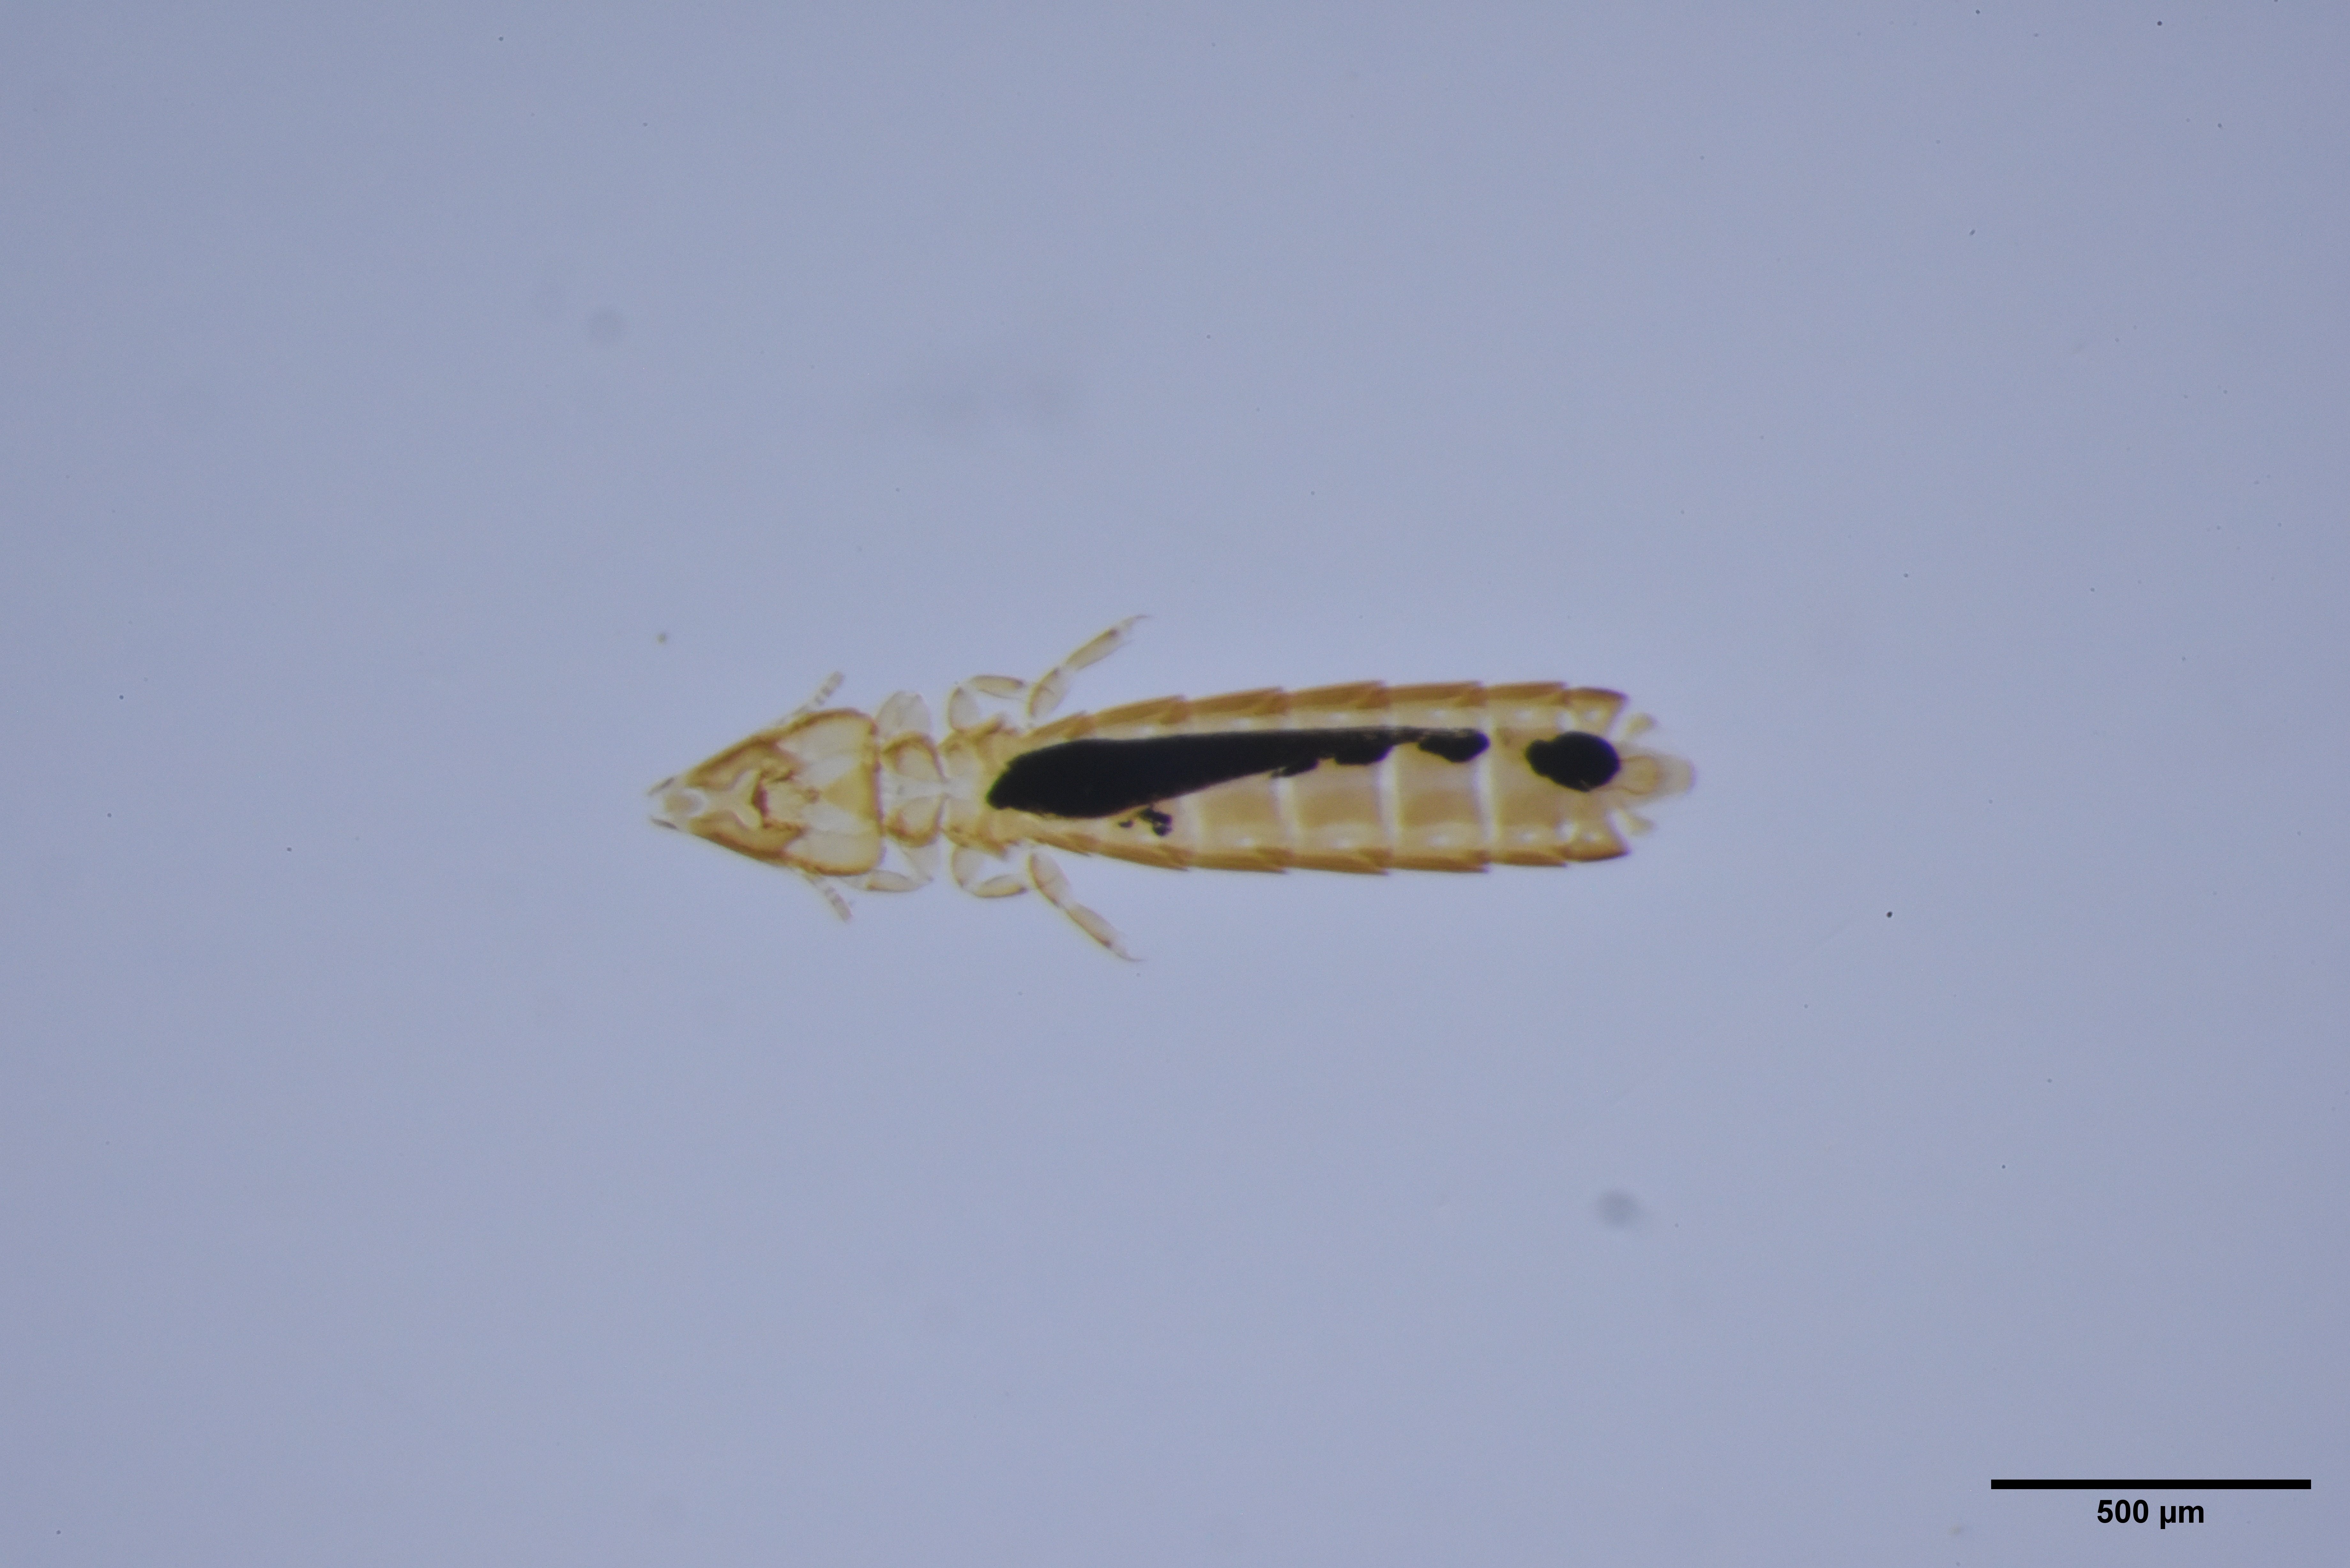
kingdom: Animalia
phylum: Arthropoda
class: Insecta
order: Psocodea
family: Philopteridae
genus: Brueelia
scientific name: Brueelia gracilis
